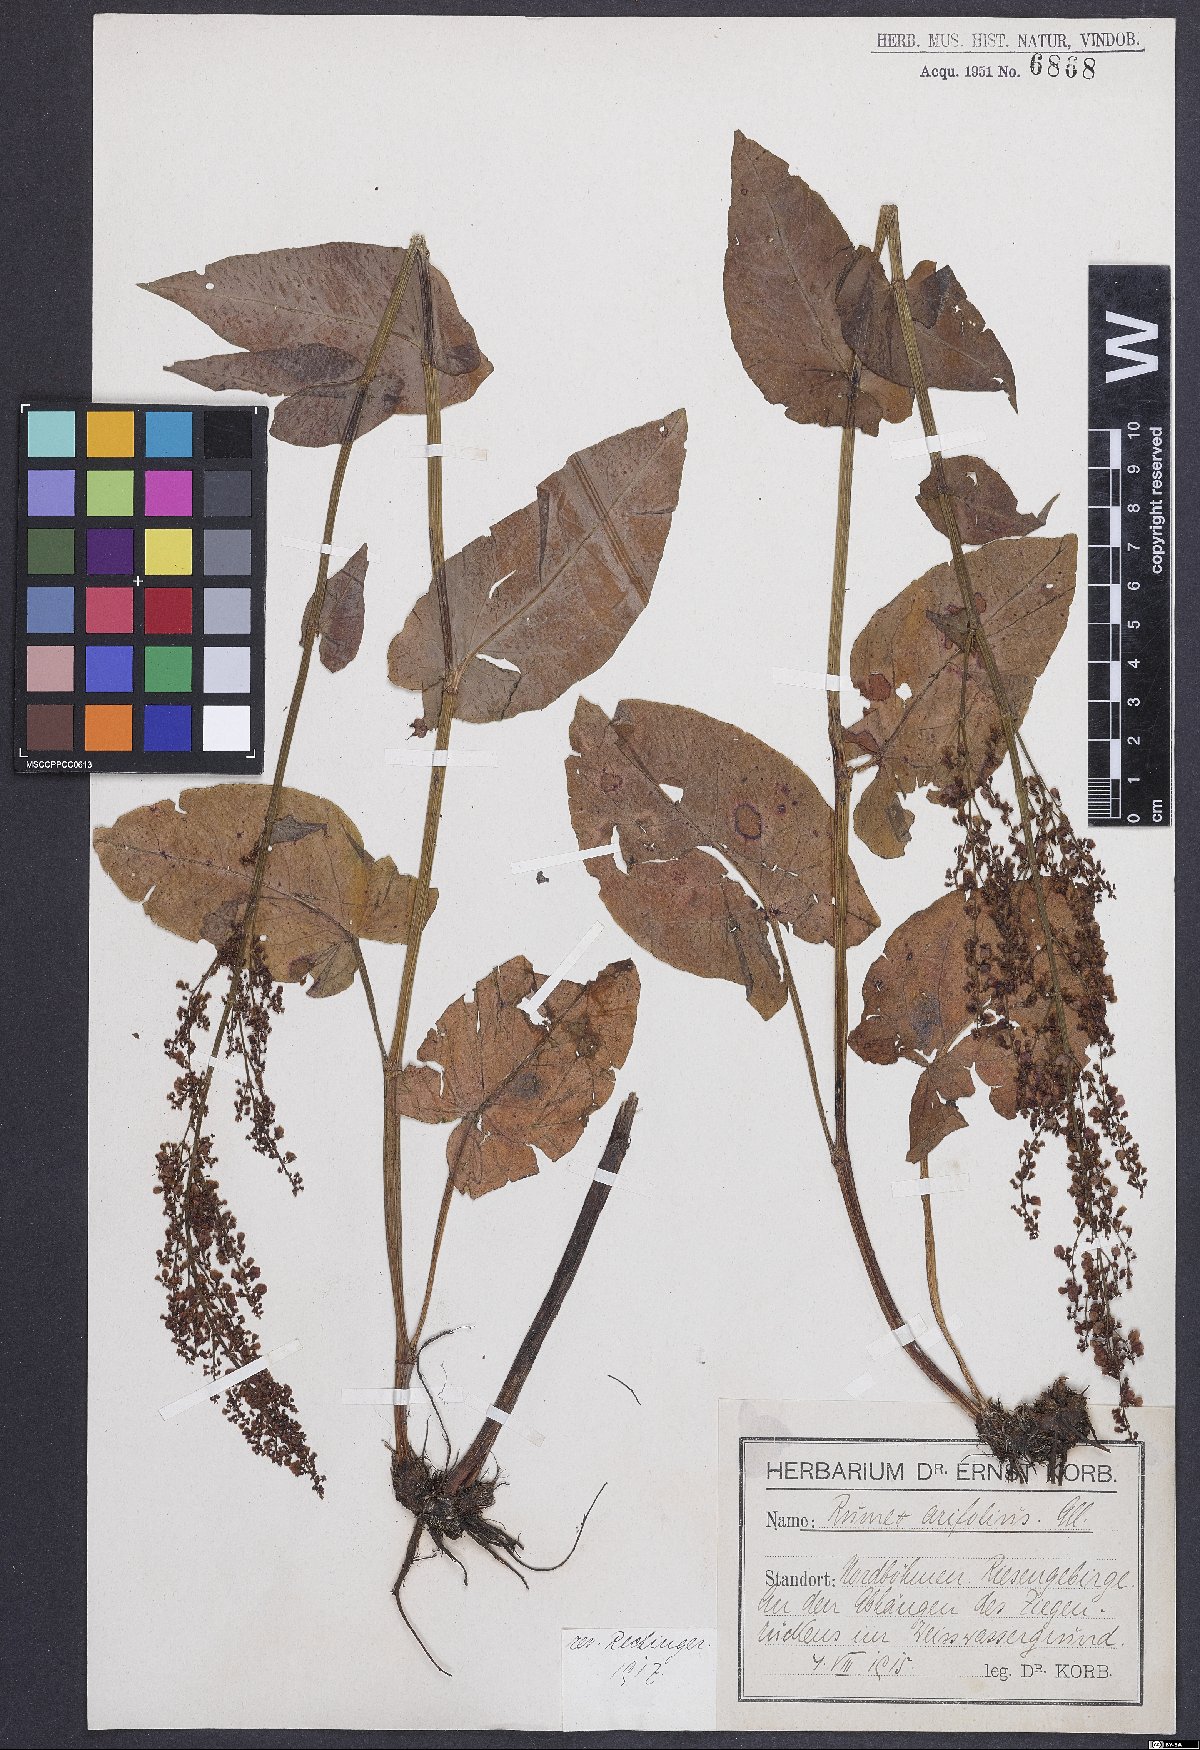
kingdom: Plantae
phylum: Tracheophyta
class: Magnoliopsida
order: Caryophyllales
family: Polygonaceae
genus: Rumex
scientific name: Rumex arifolius
